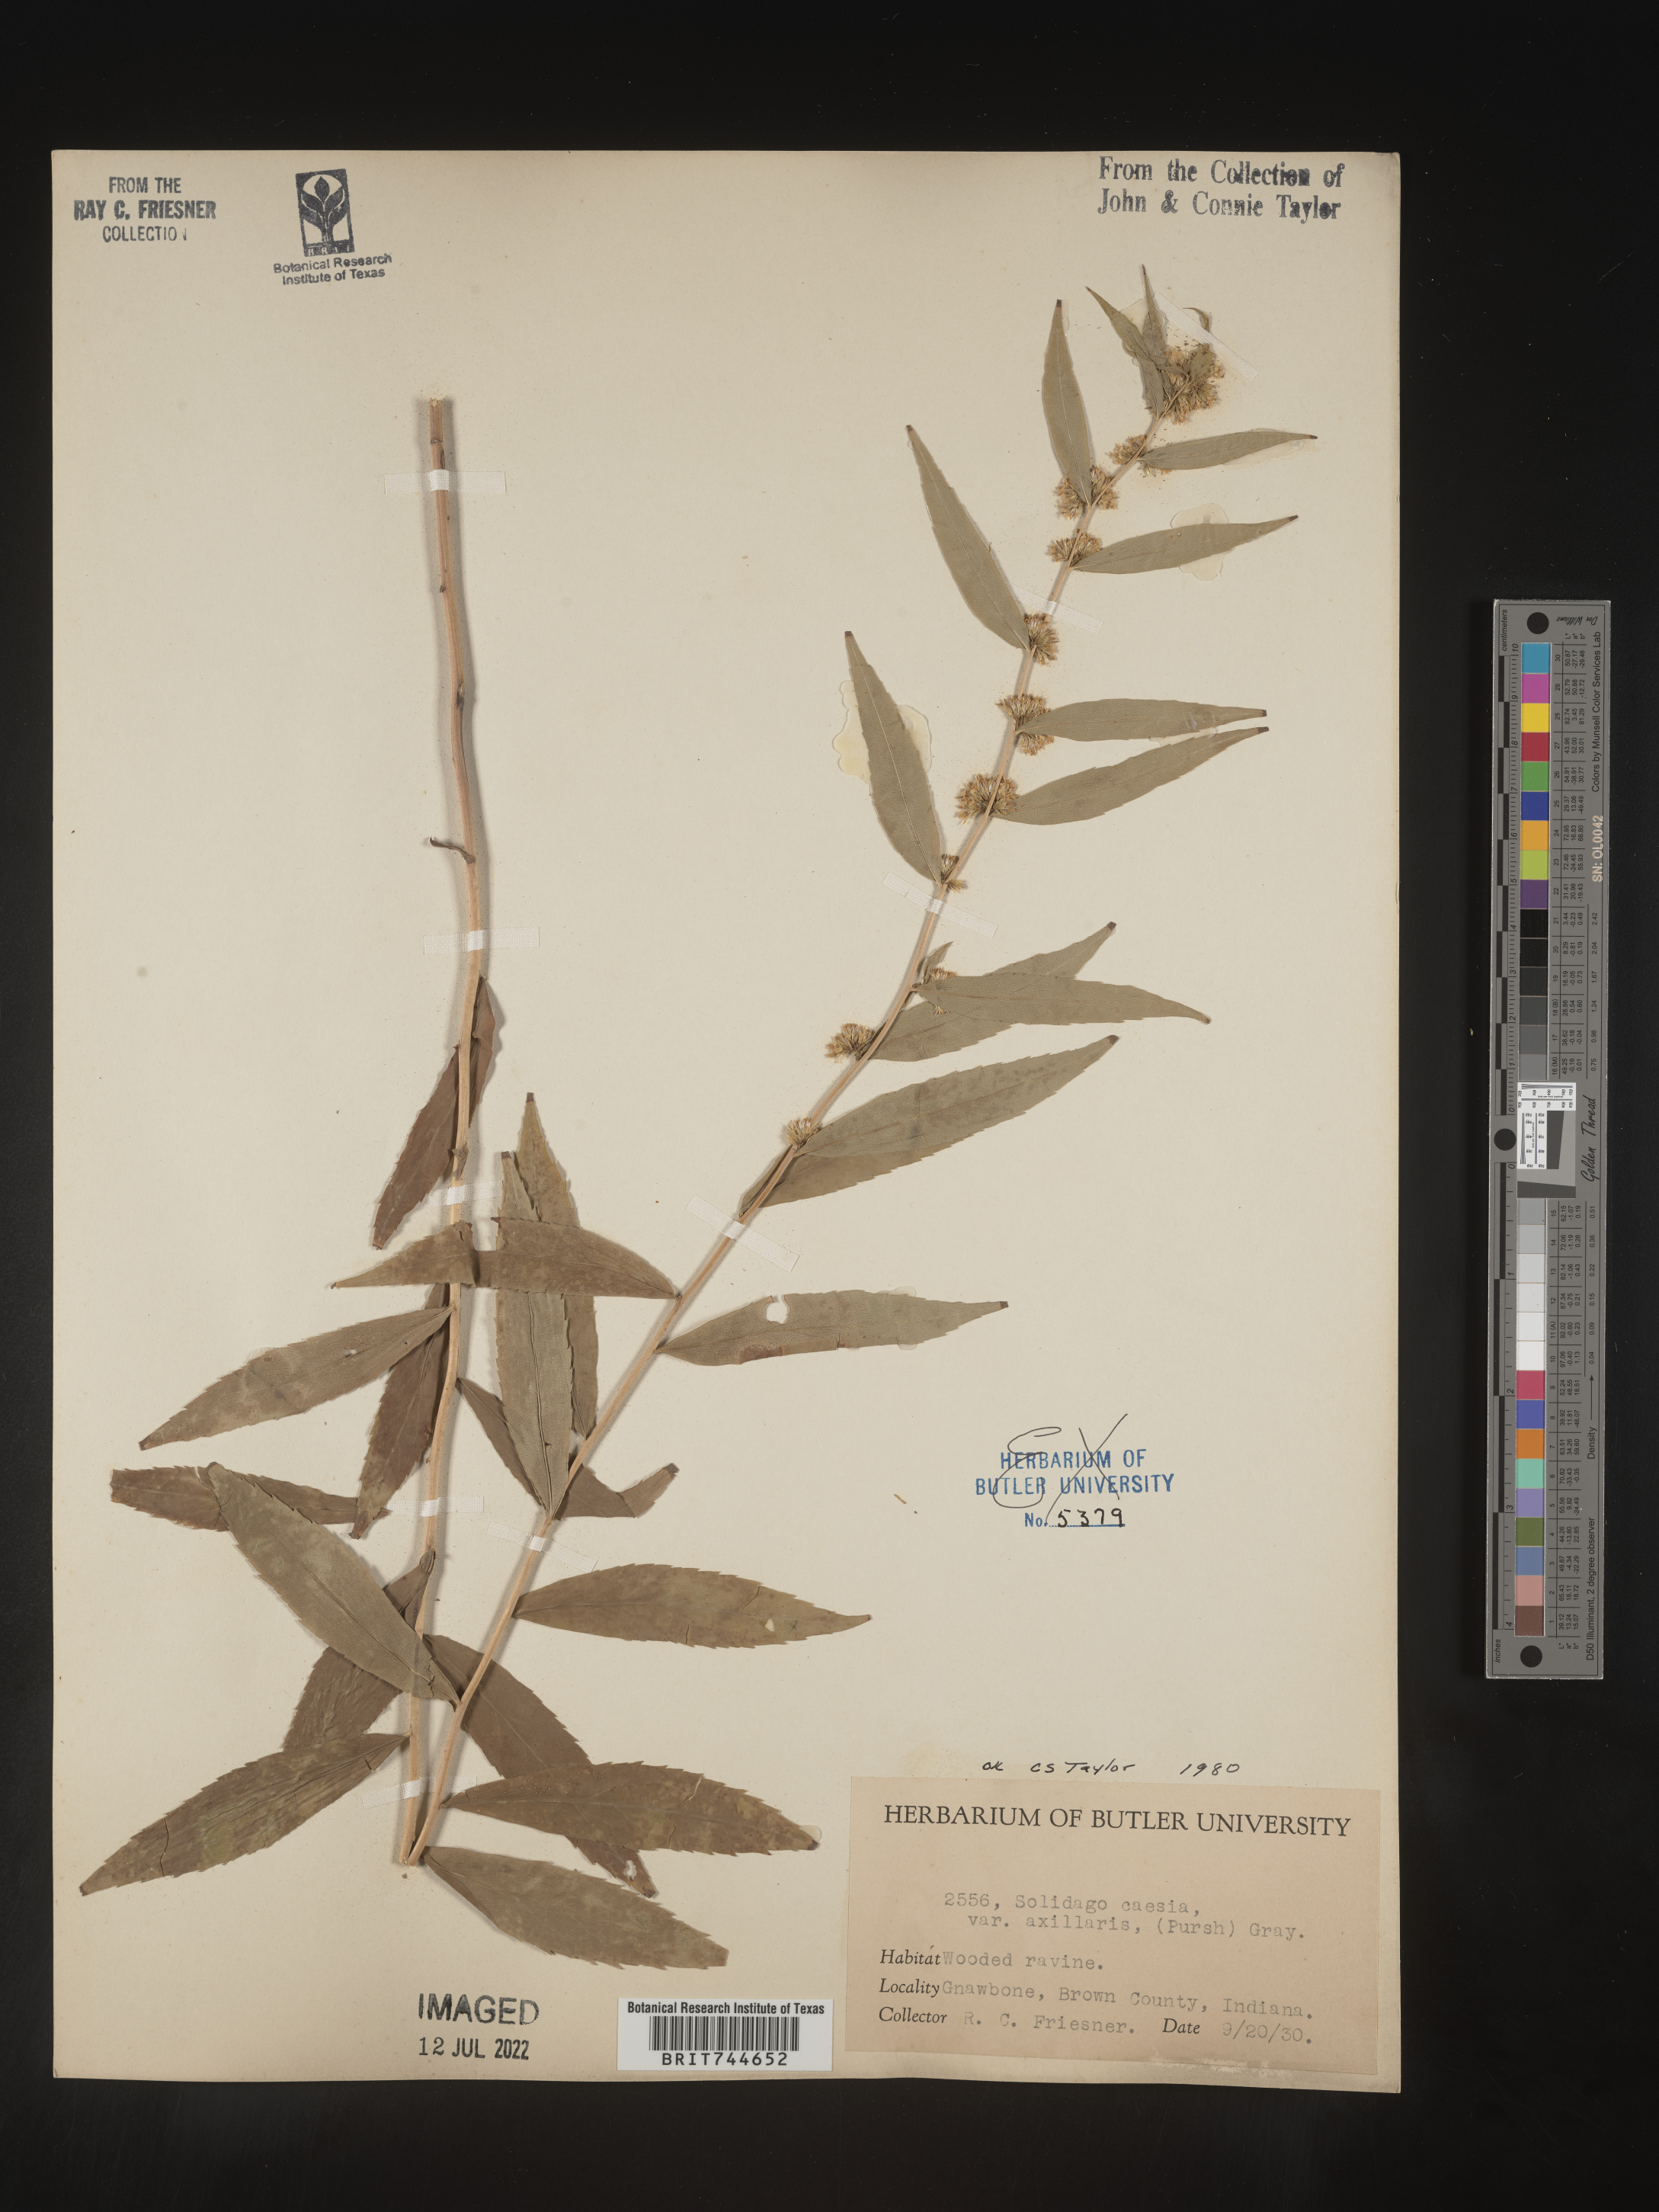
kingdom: Plantae
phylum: Tracheophyta
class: Magnoliopsida
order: Asterales
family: Asteraceae
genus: Solidago
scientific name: Solidago caesia
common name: Woodland goldenrod
